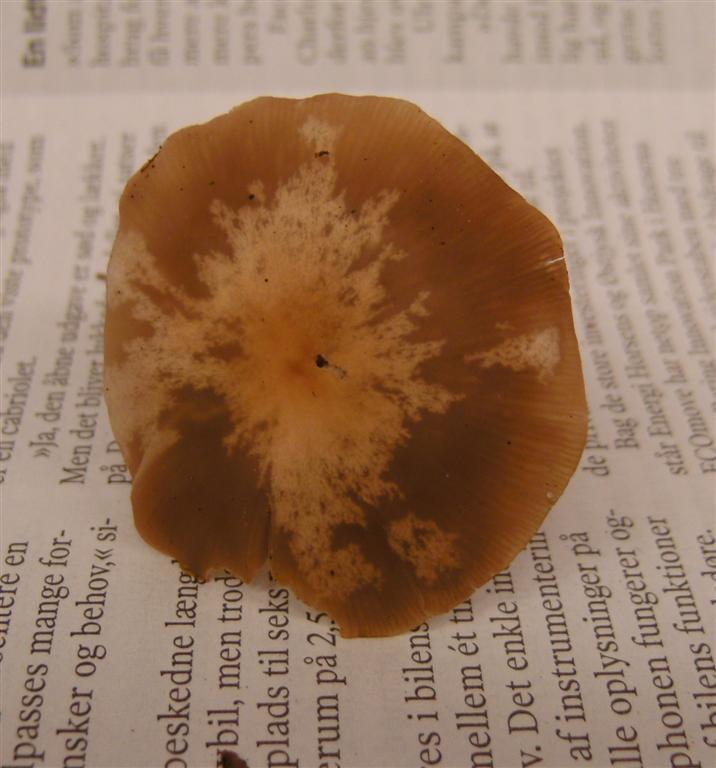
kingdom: Fungi
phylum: Basidiomycota
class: Agaricomycetes
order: Agaricales
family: Tricholomataceae
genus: Clitocybe
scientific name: Clitocybe metachroa
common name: grå tragthat
